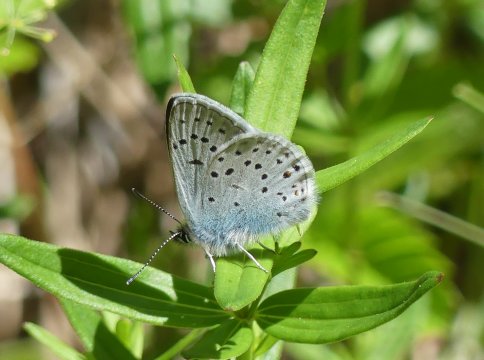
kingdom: Animalia
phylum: Arthropoda
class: Insecta
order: Lepidoptera
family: Lycaenidae
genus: Plebejus
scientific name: Plebejus saepiolus
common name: Greenish Blue
